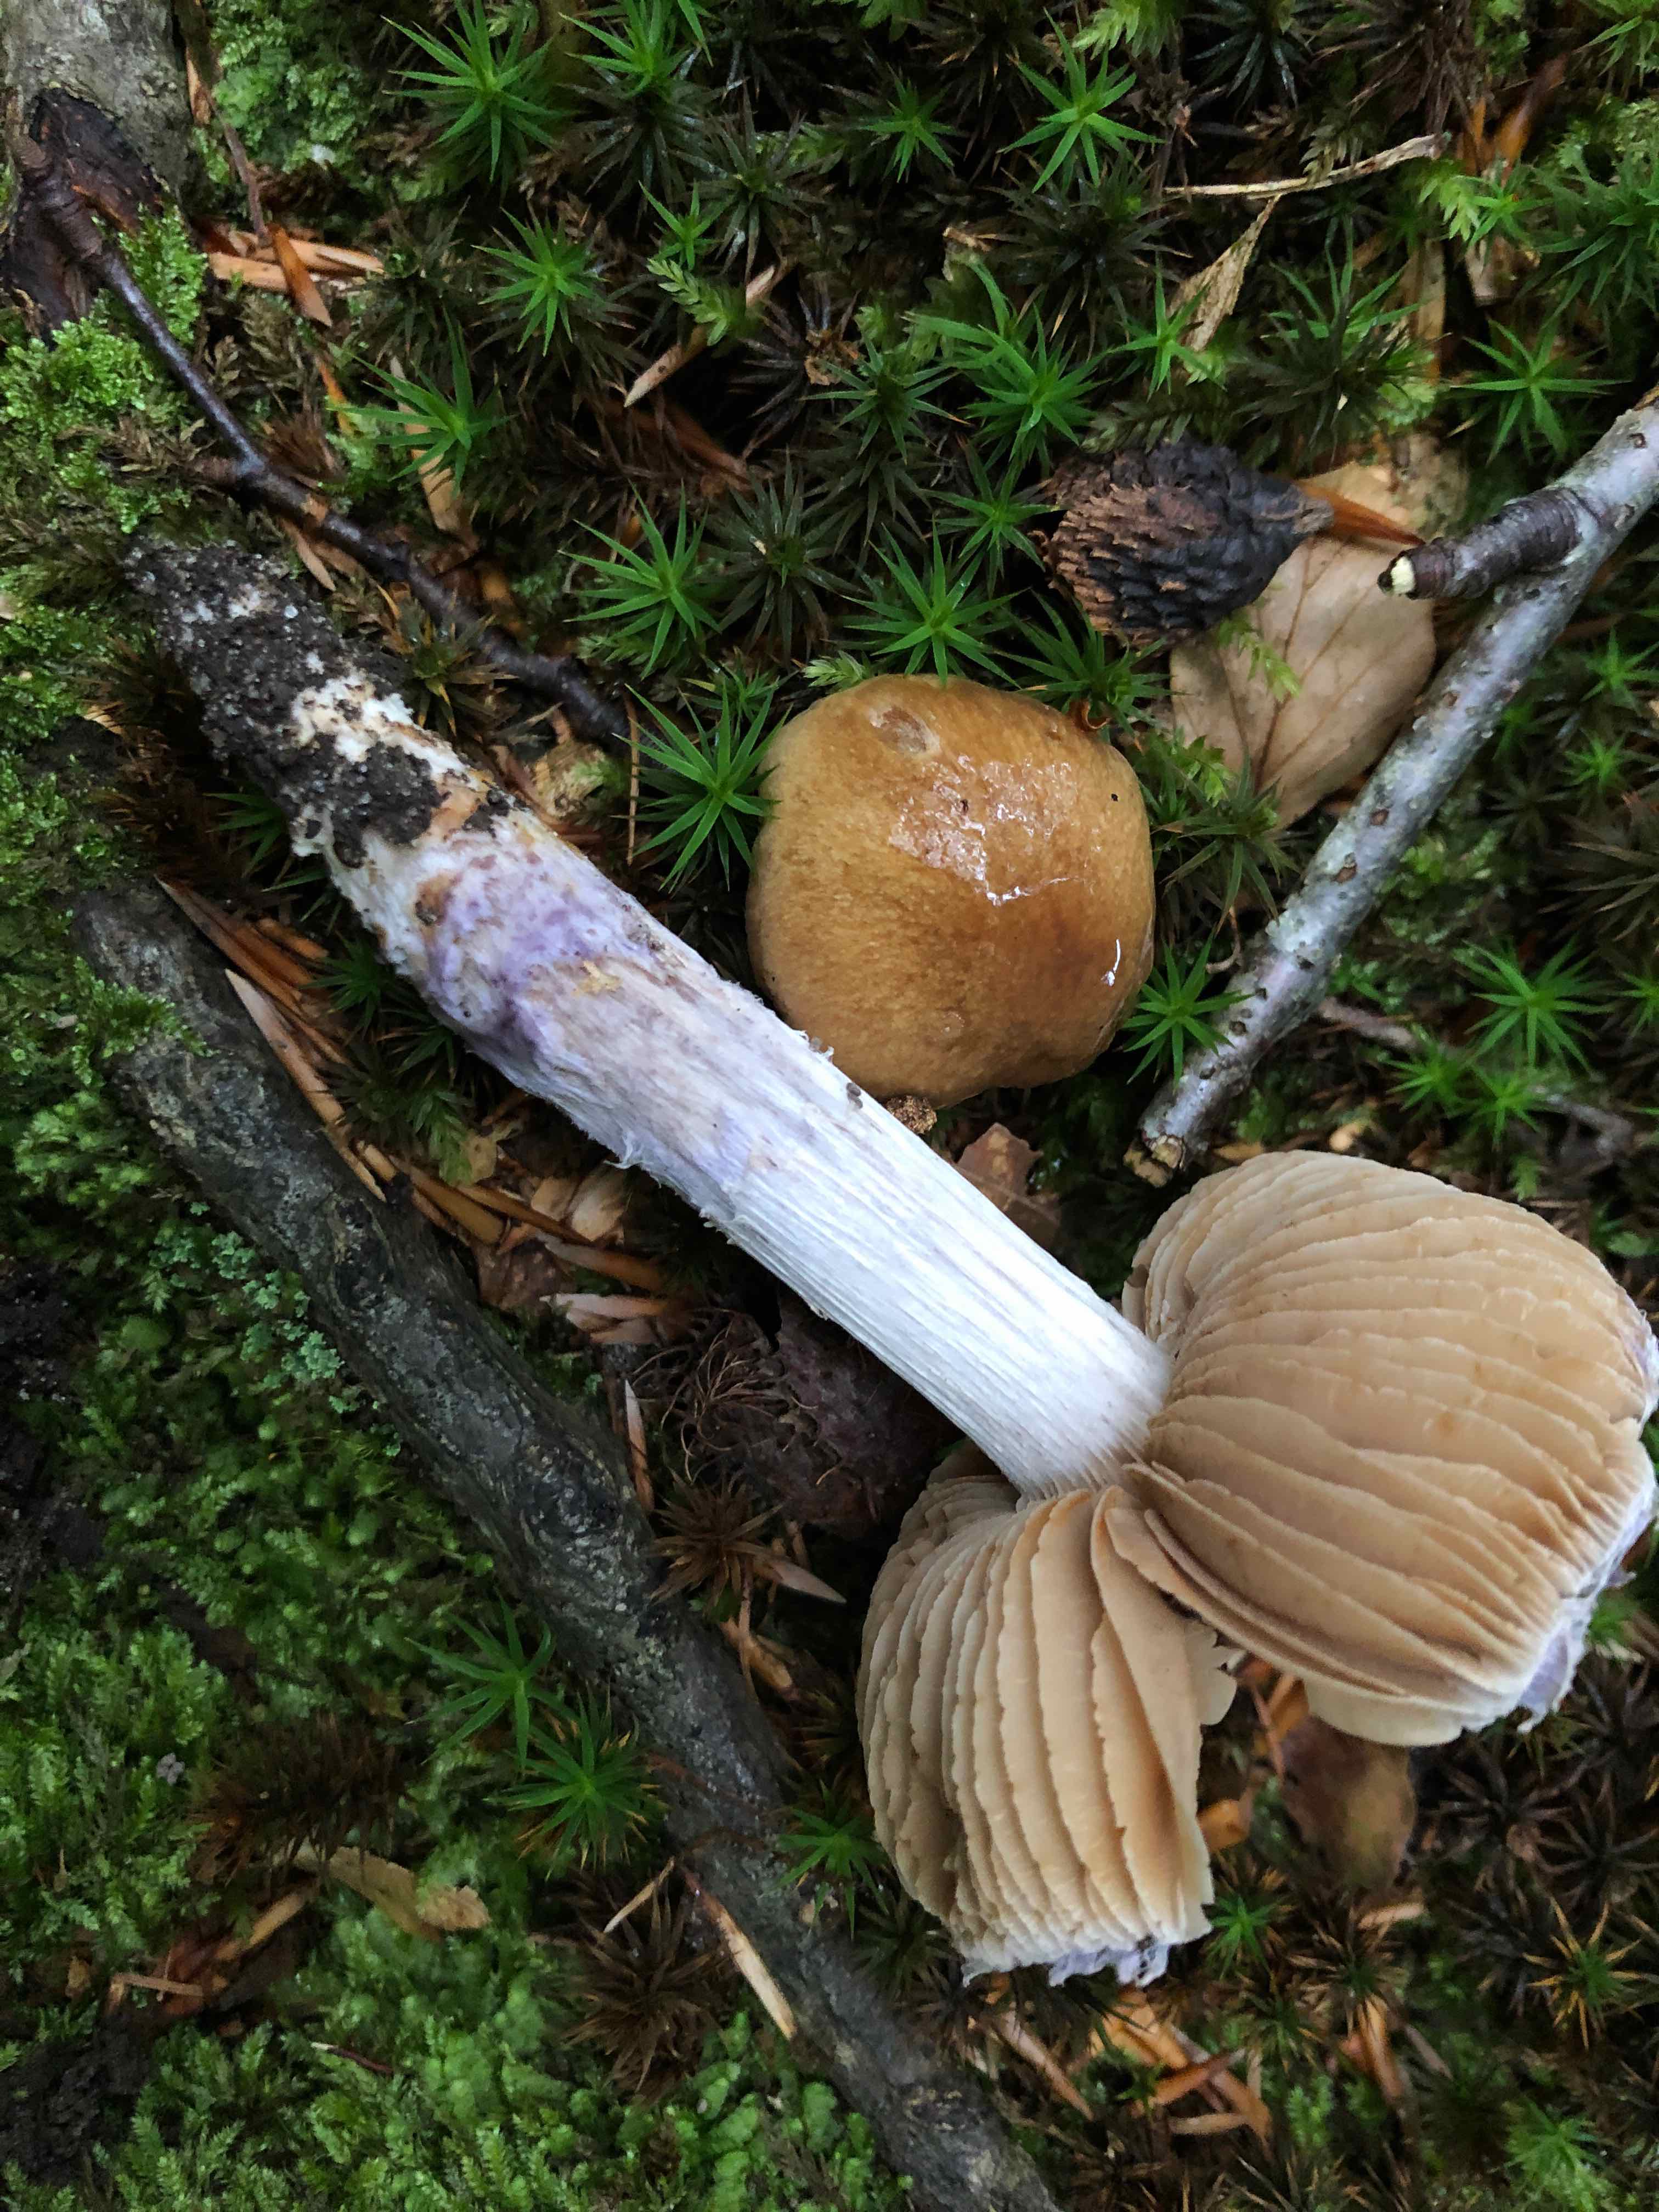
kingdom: Fungi
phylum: Basidiomycota
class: Agaricomycetes
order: Agaricales
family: Cortinariaceae
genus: Cortinarius
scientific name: Cortinarius elatior
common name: høj slørhat
